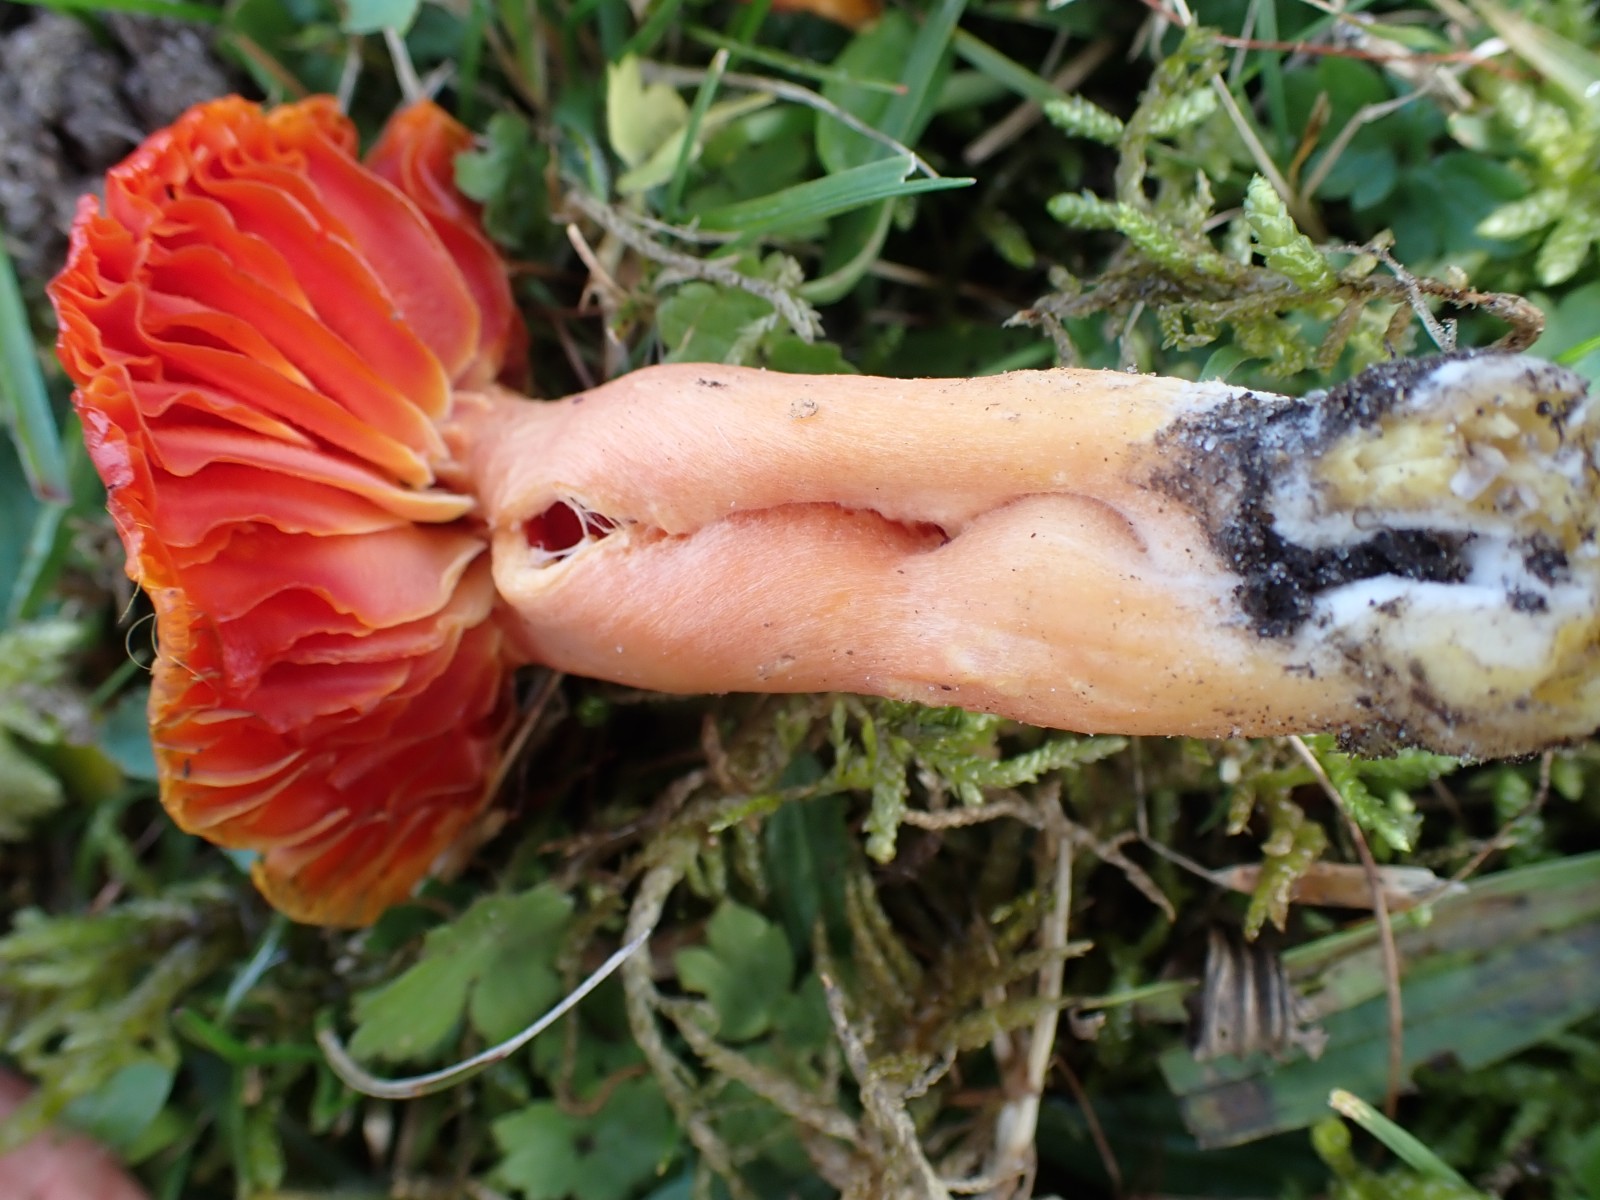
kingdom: Fungi
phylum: Basidiomycota
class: Agaricomycetes
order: Agaricales
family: Hygrophoraceae
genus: Hygrocybe
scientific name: Hygrocybe splendidissima
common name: knaldrød vokshat
